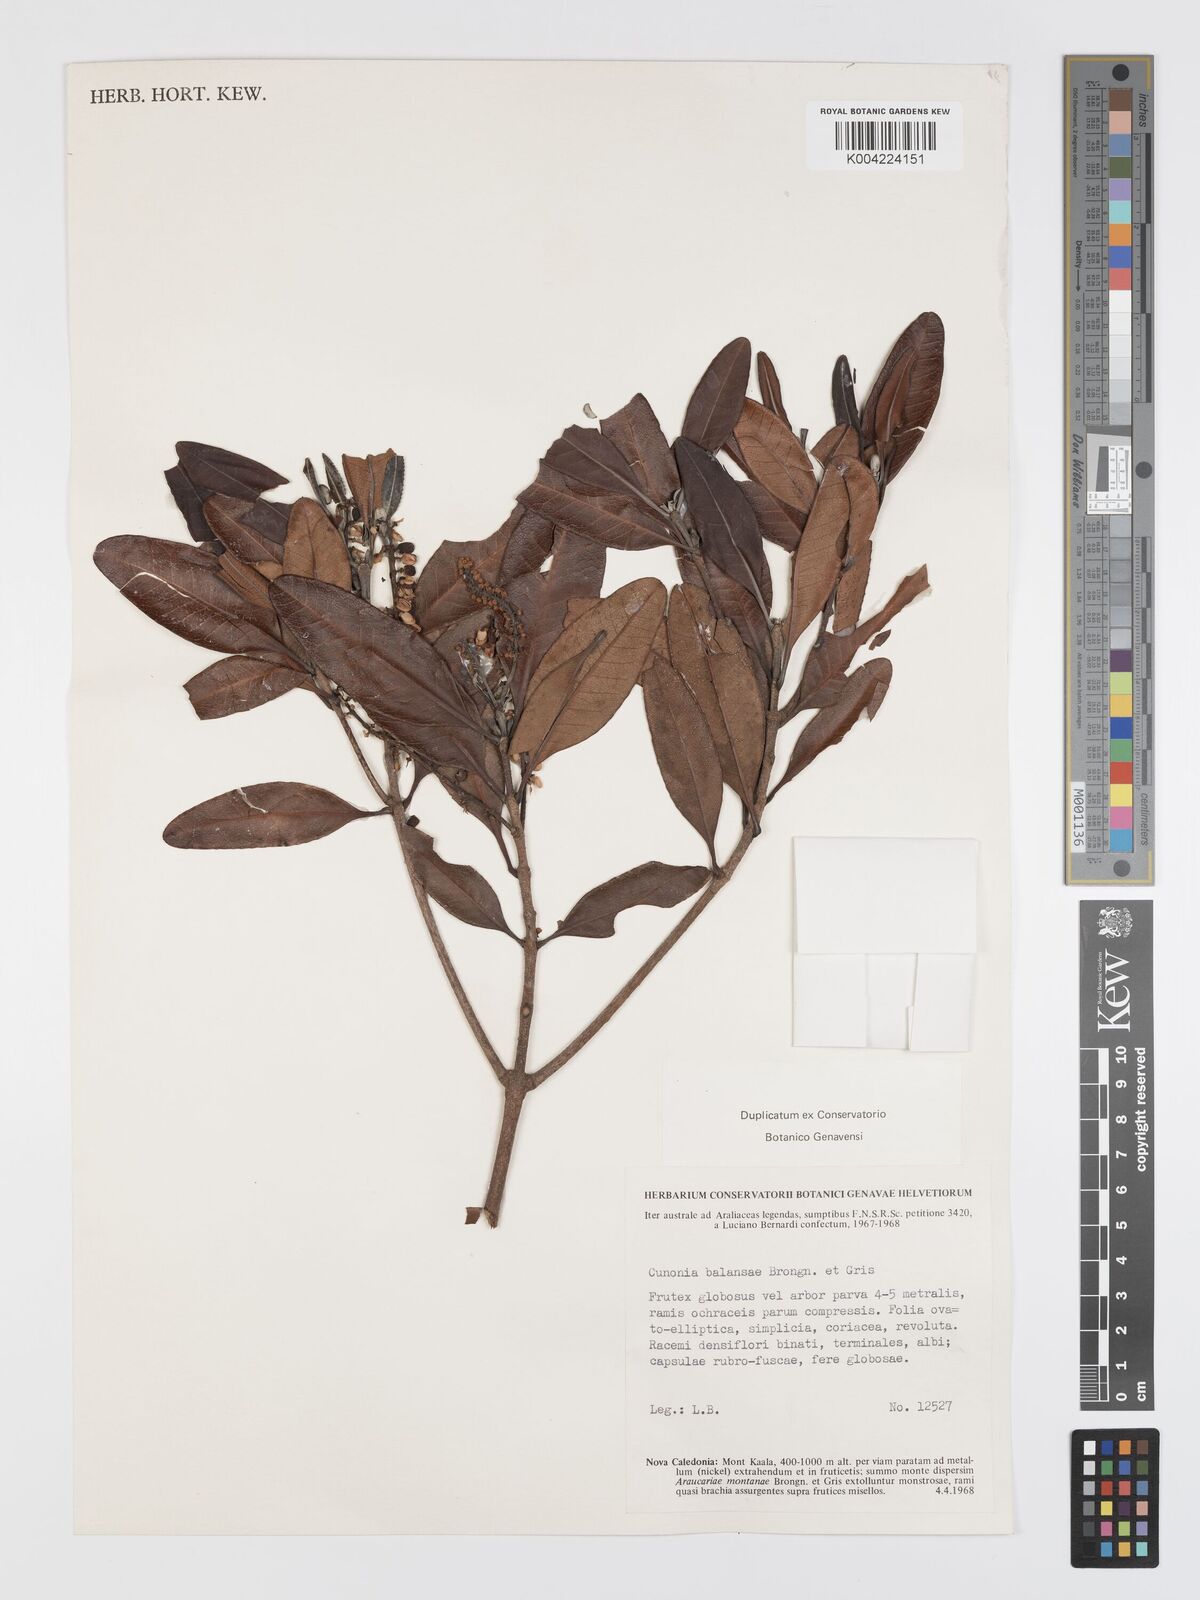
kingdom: Plantae
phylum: Tracheophyta
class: Magnoliopsida
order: Oxalidales
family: Cunoniaceae
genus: Cunonia
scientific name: Cunonia balansae
